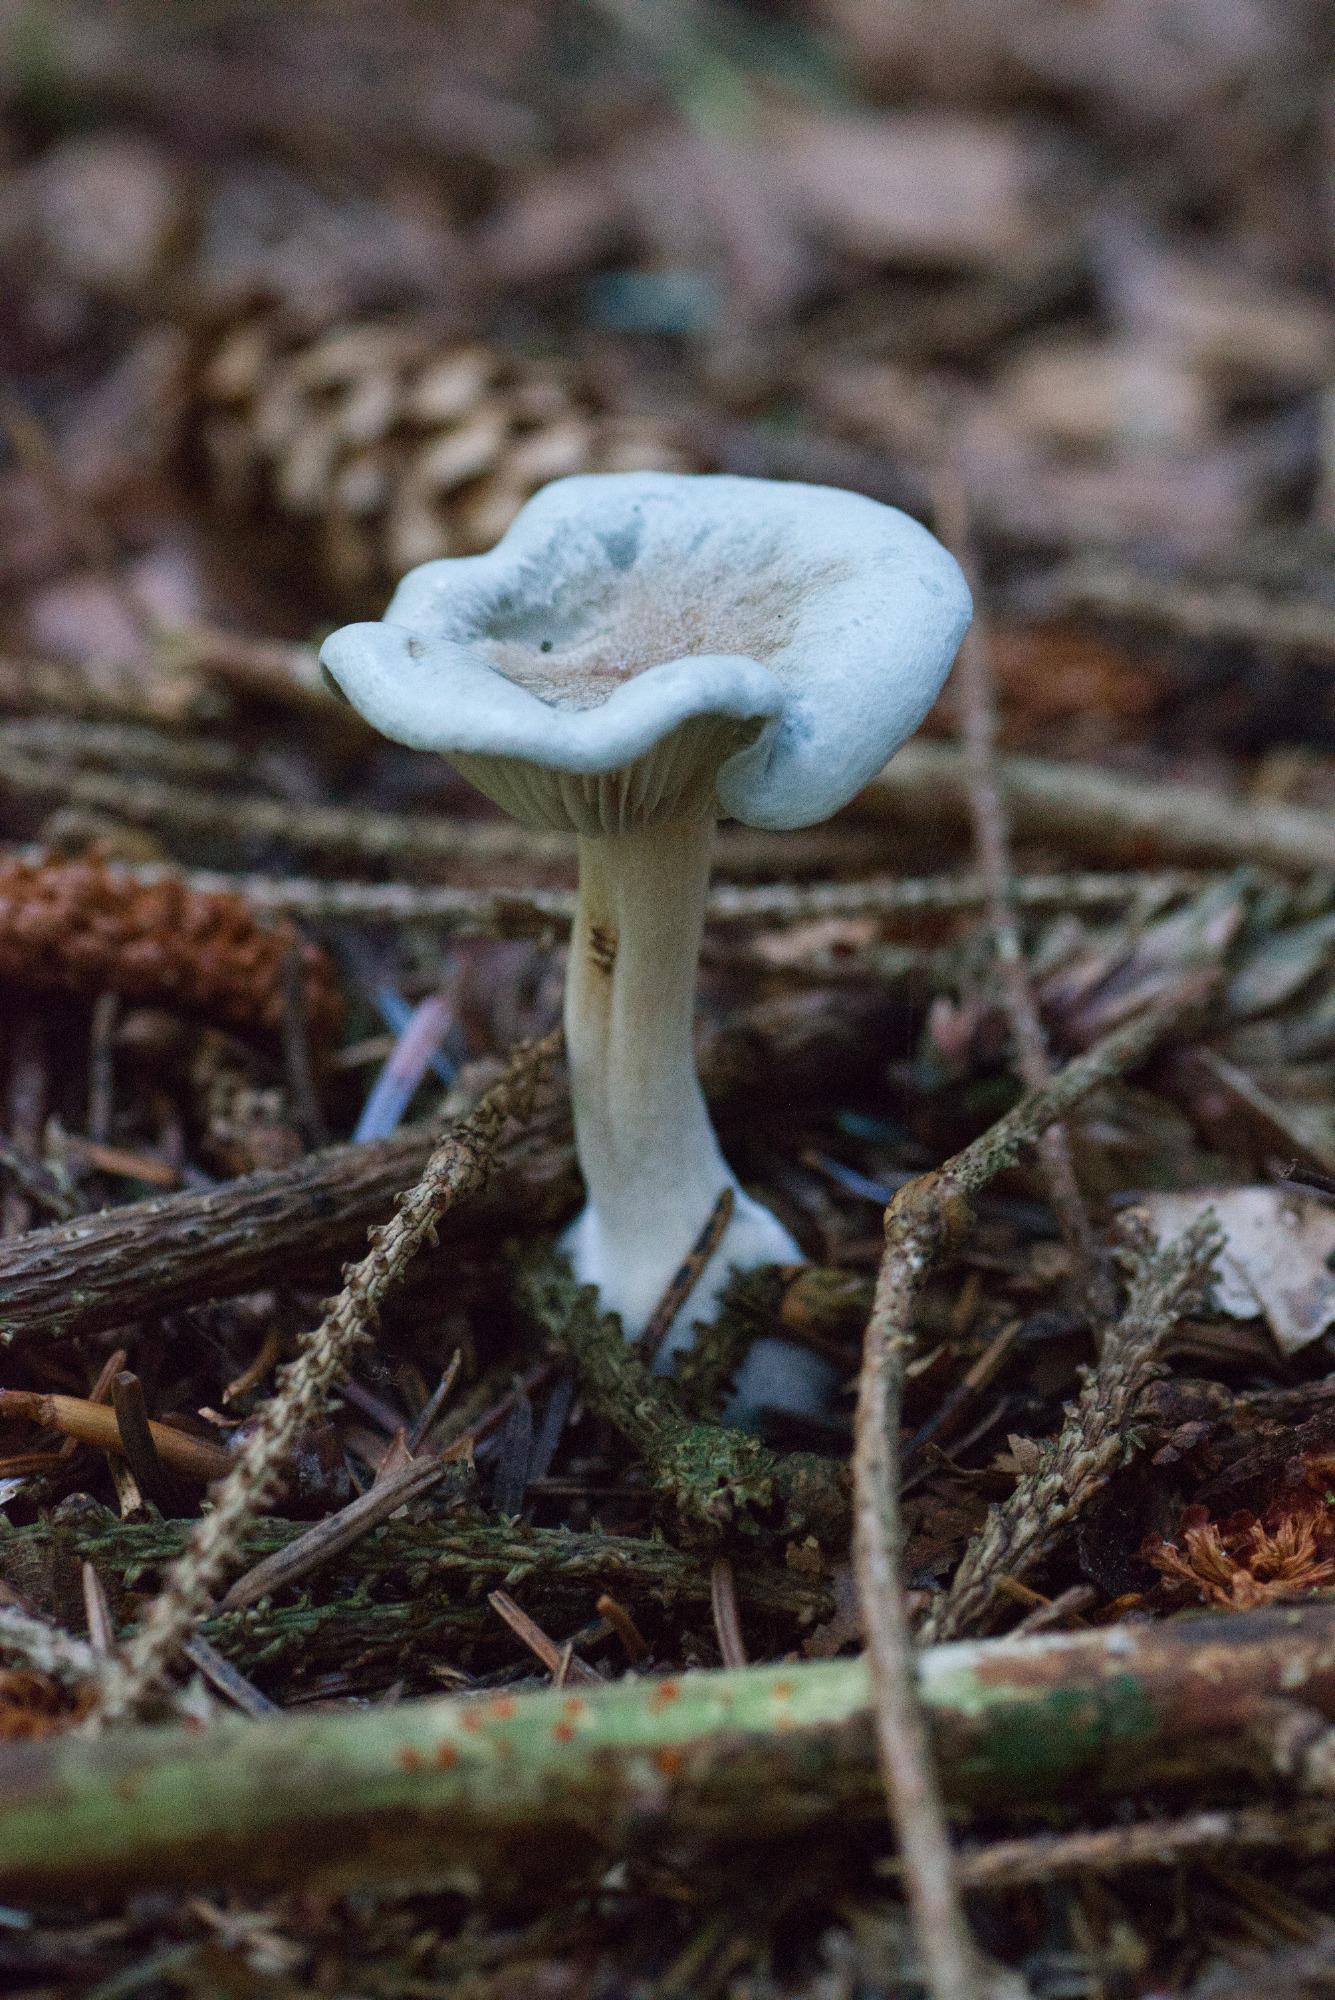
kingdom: Fungi
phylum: Basidiomycota
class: Agaricomycetes
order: Agaricales
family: Tricholomataceae
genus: Clitocybe
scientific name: Clitocybe odora
